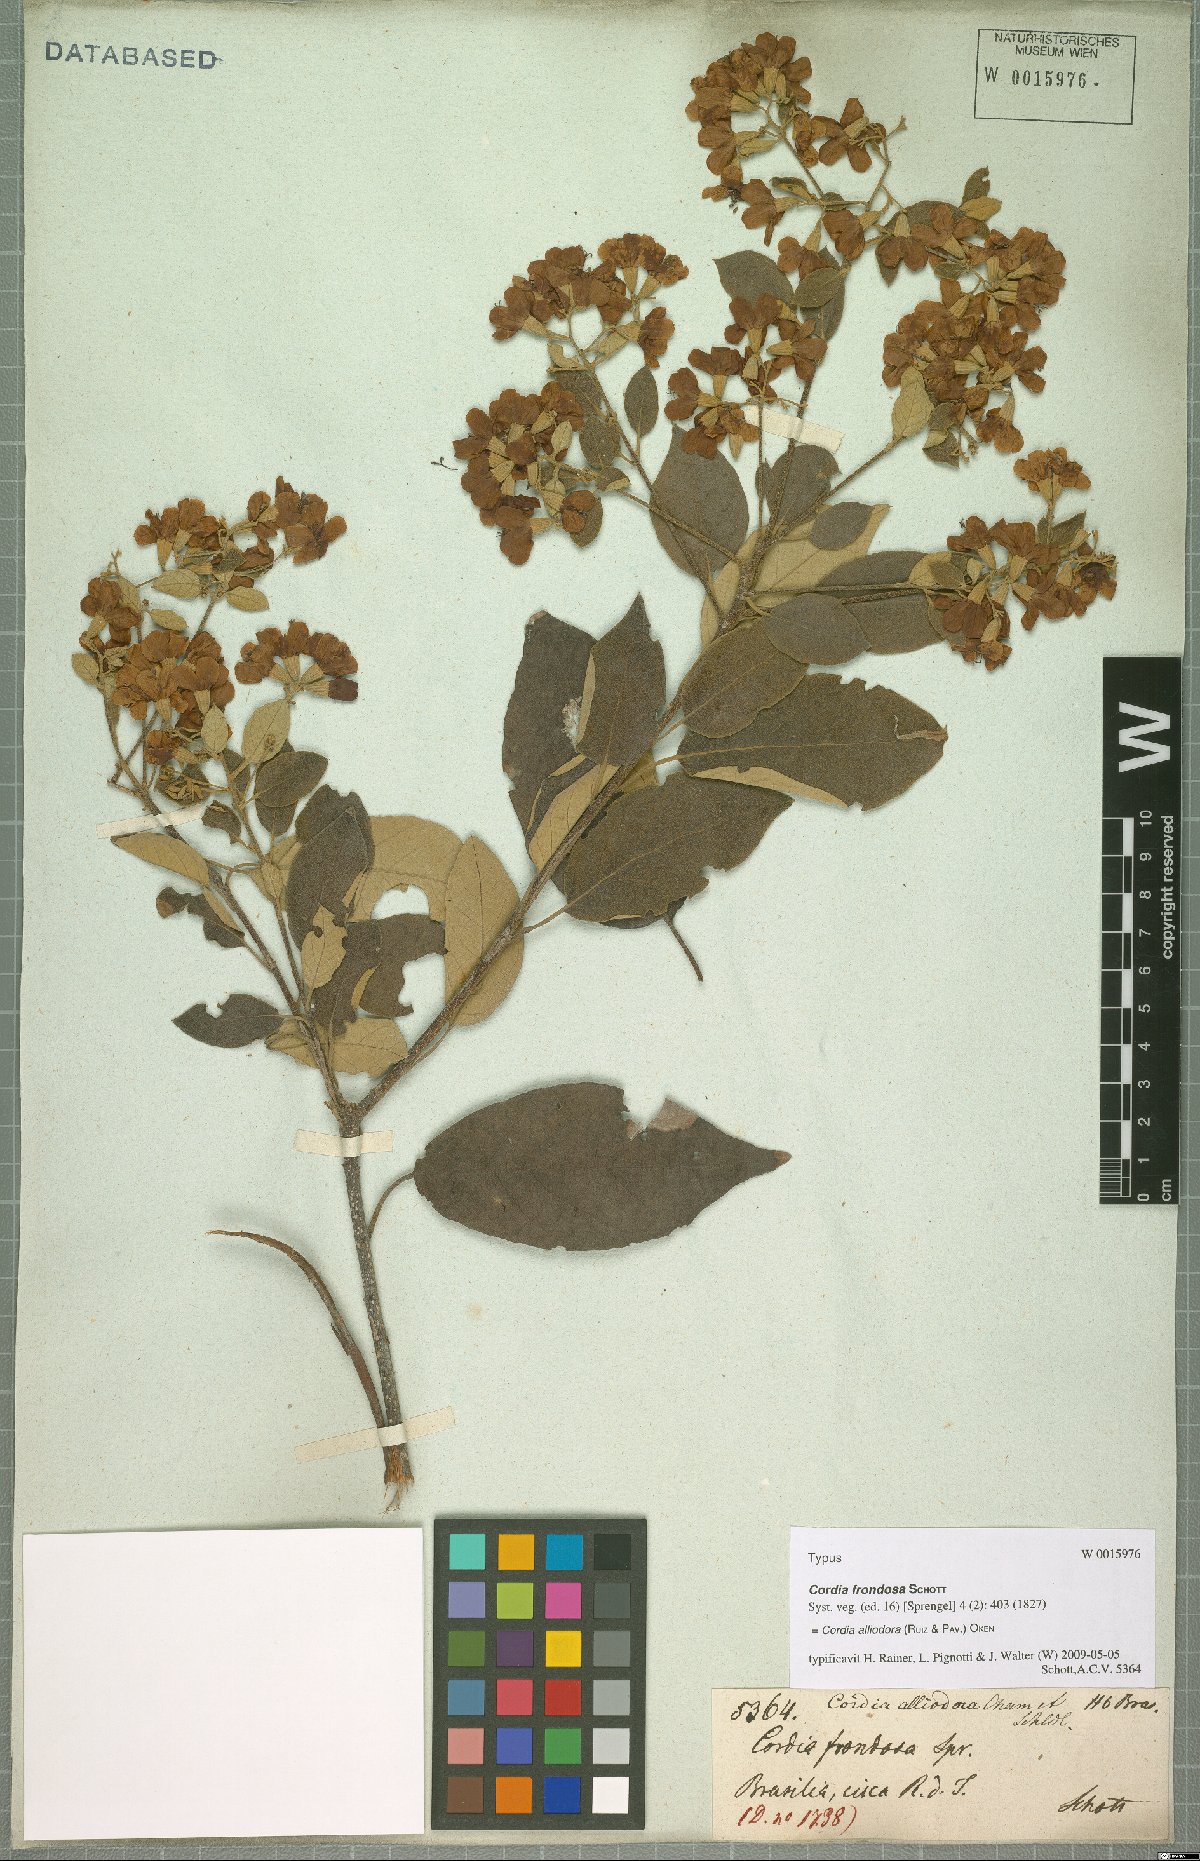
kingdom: Plantae
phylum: Tracheophyta
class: Magnoliopsida
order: Boraginales
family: Cordiaceae
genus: Cordia
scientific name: Cordia alliodora
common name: Spanish elm
